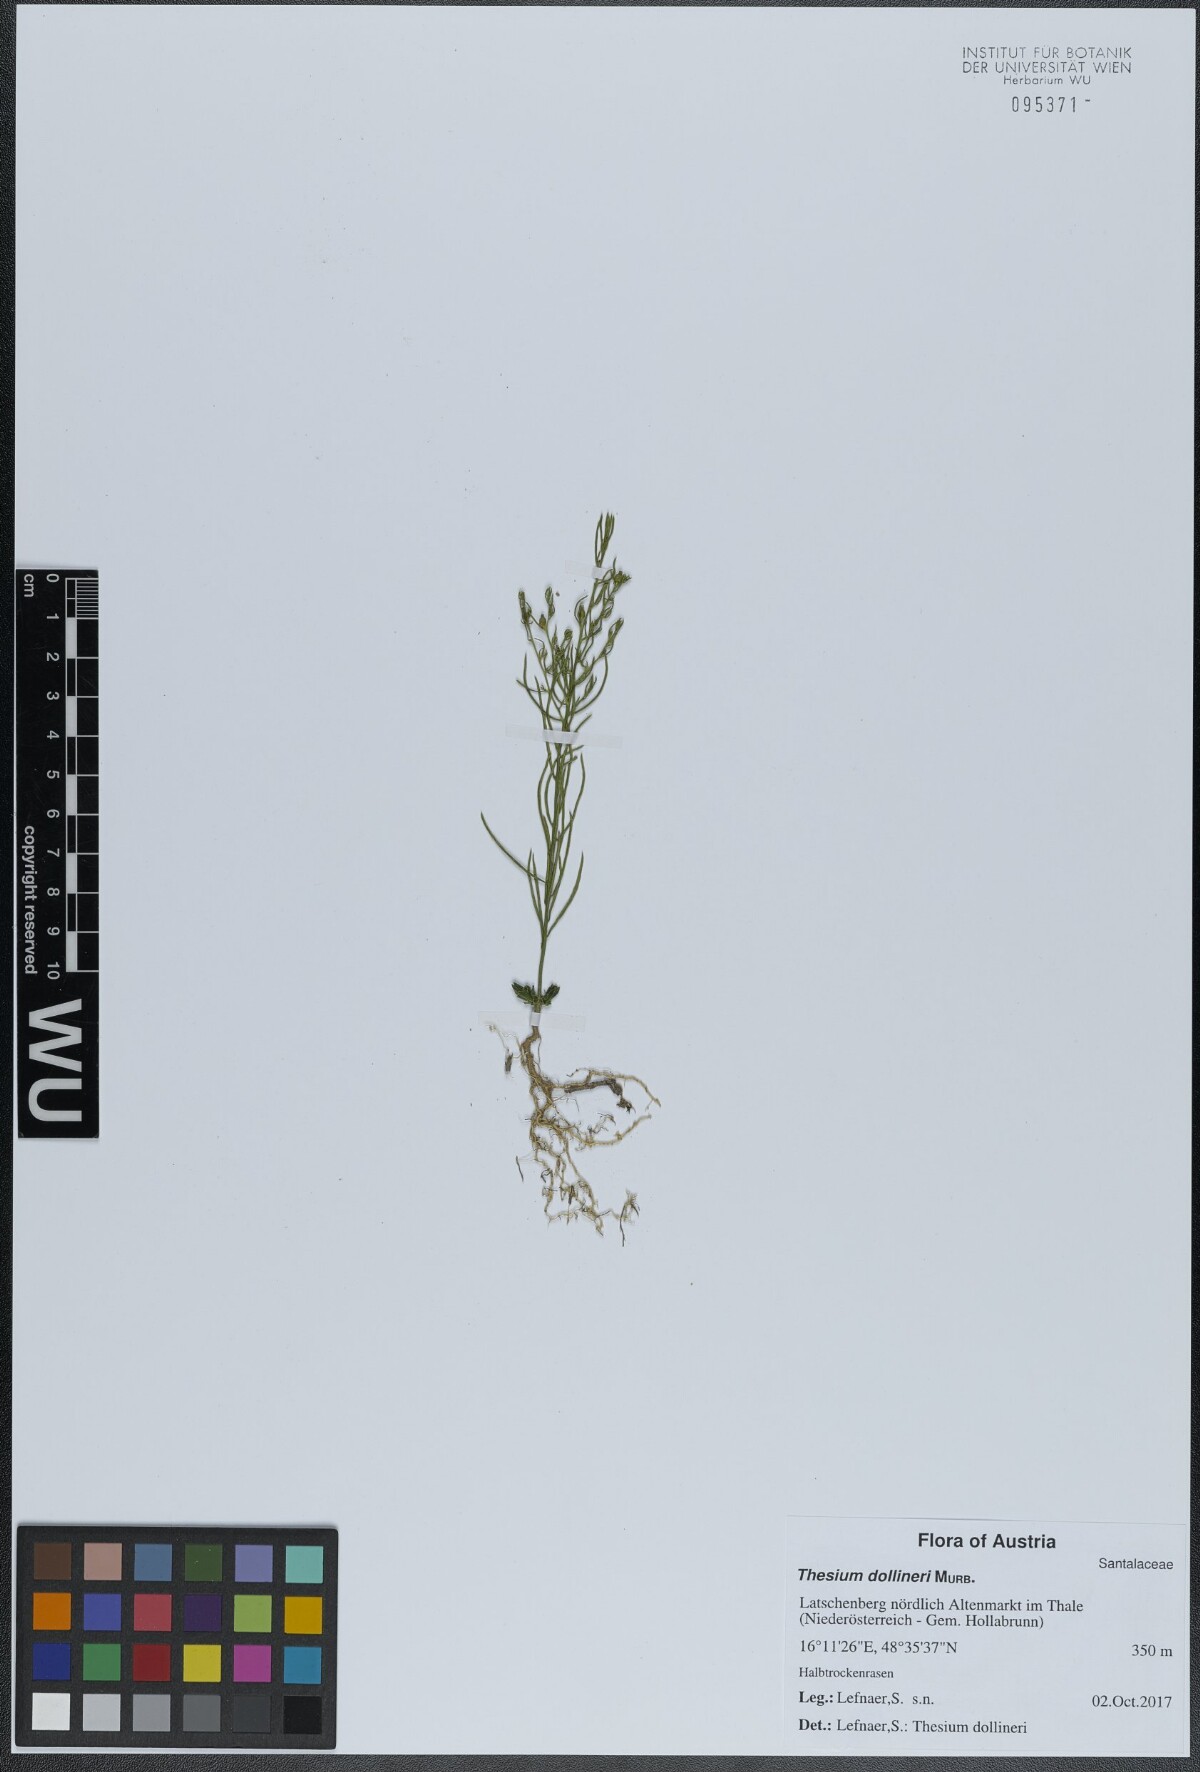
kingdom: Plantae
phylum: Tracheophyta
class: Magnoliopsida
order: Santalales
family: Thesiaceae
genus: Thesium
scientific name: Thesium dollineri
